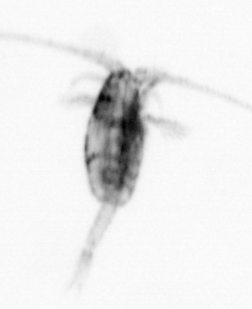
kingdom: Animalia
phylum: Arthropoda
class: Copepoda
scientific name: Copepoda
